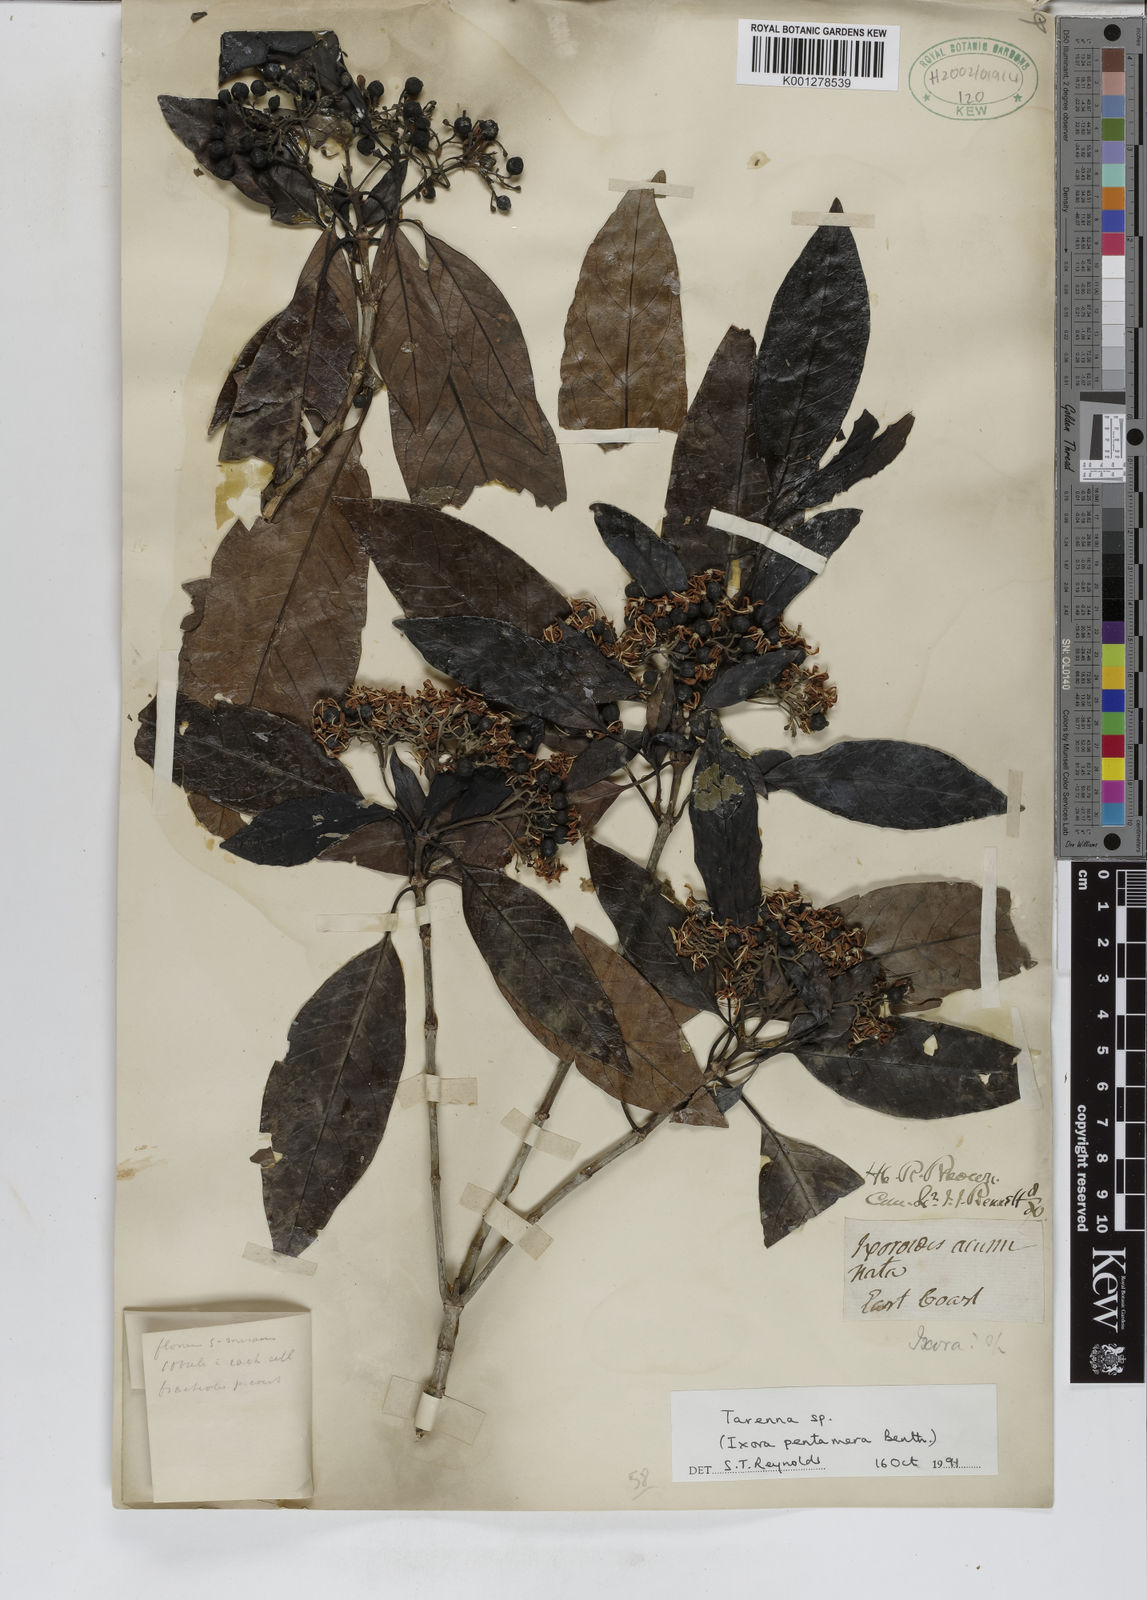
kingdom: Plantae
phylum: Tracheophyta
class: Magnoliopsida
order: Gentianales
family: Rubiaceae
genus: Tarenna
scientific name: Tarenna
